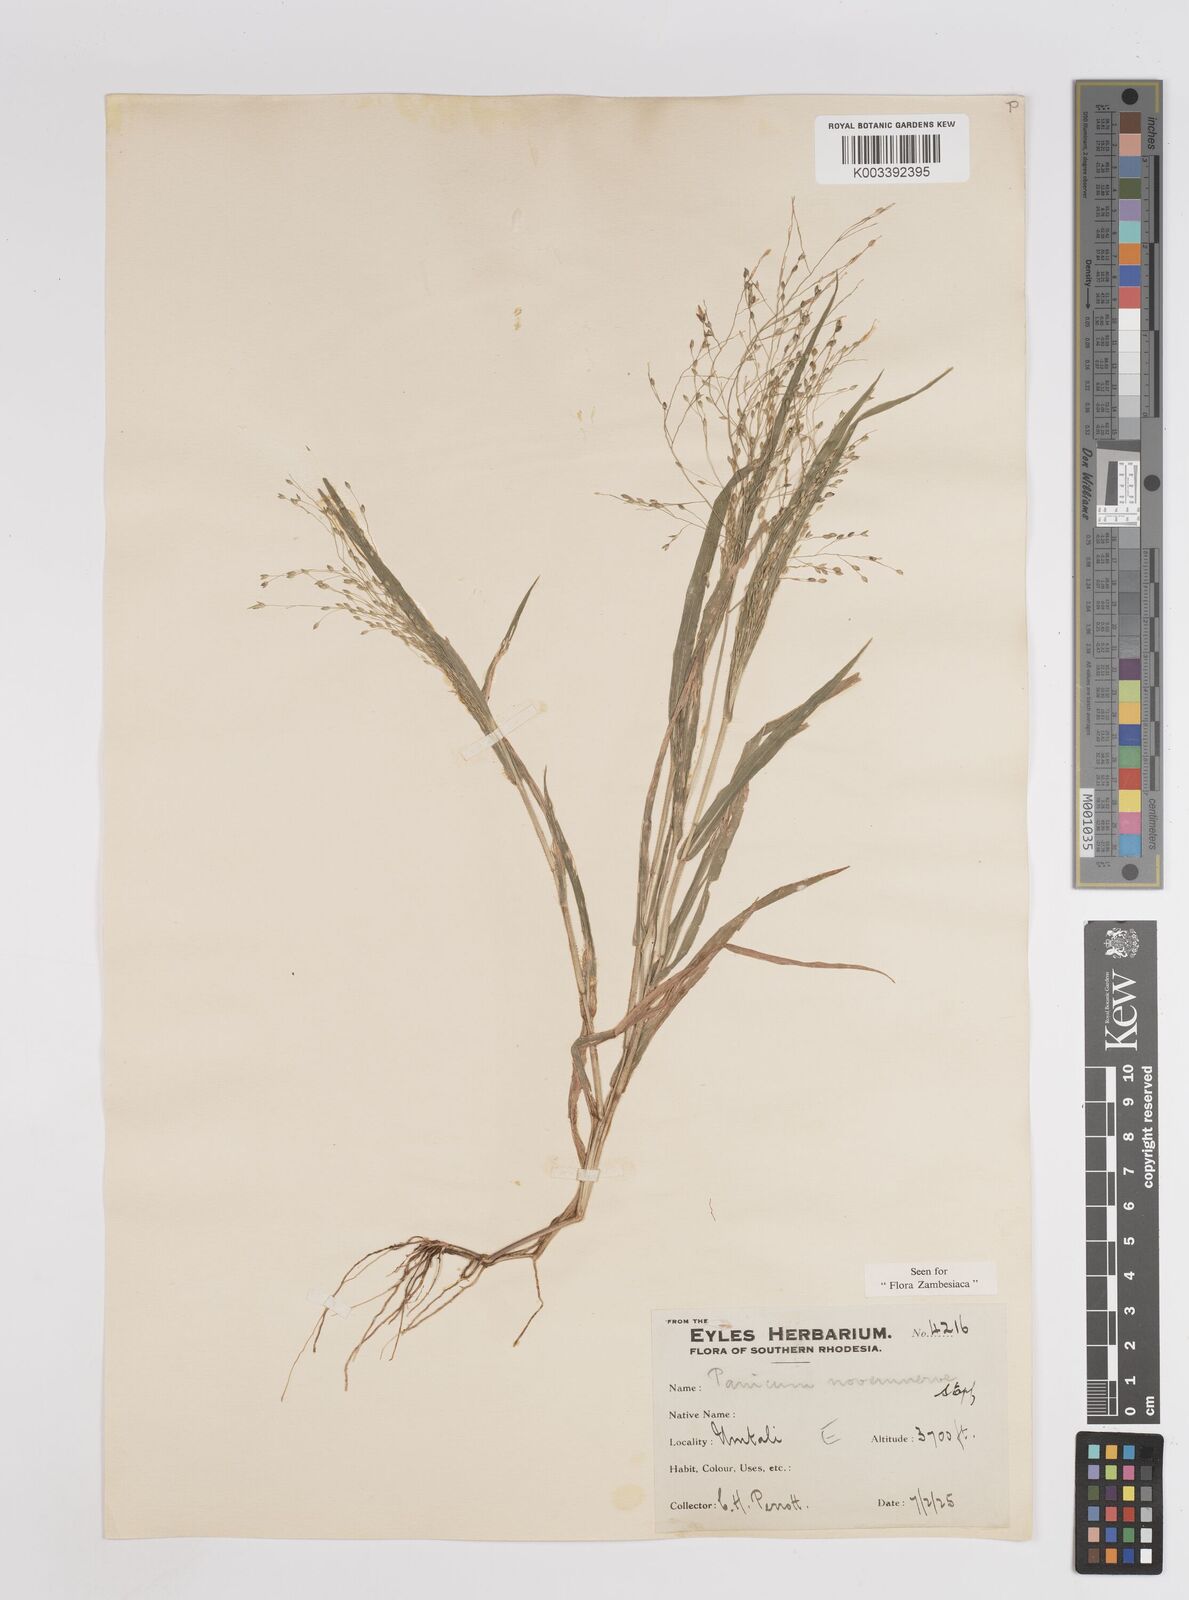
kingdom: Plantae
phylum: Tracheophyta
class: Liliopsida
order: Poales
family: Poaceae
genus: Panicum
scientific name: Panicum novemnerve
